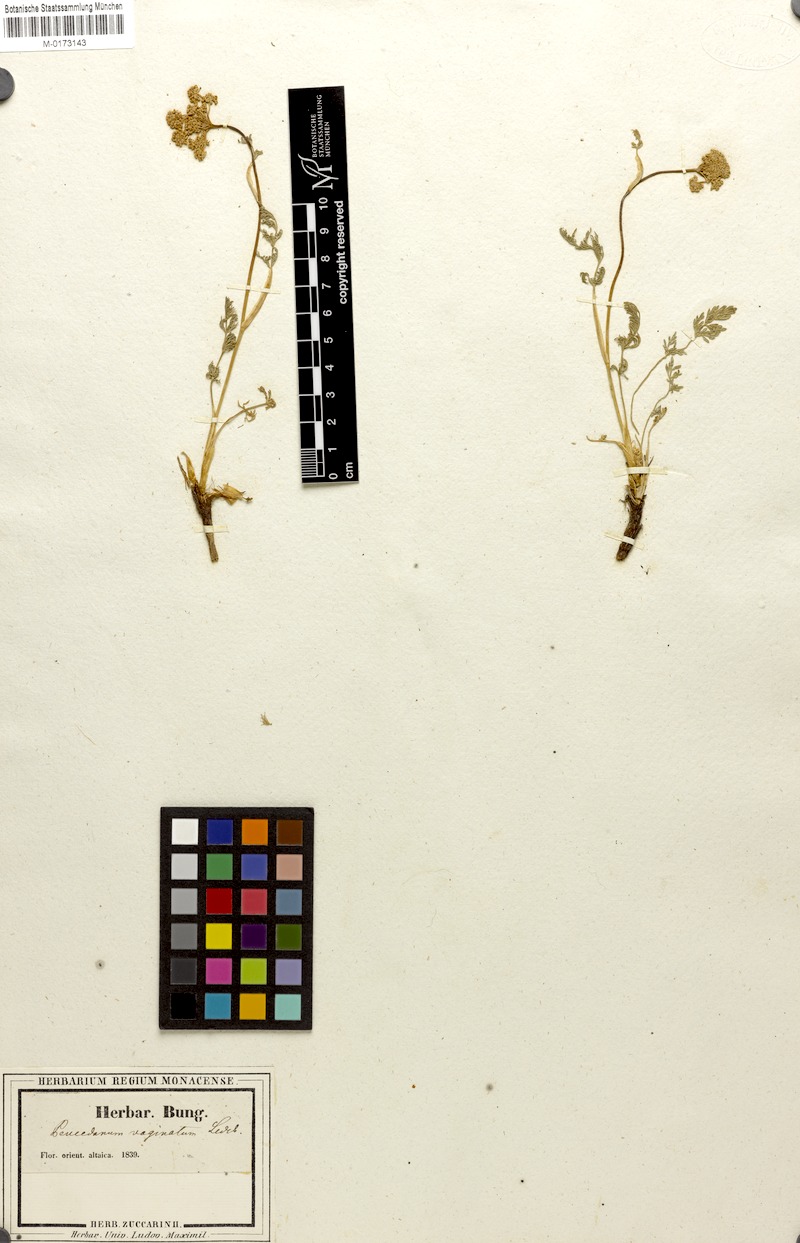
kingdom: Plantae
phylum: Tracheophyta
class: Magnoliopsida
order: Apiales
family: Apiaceae
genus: Peucedanum
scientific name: Peucedanum vaginatum
